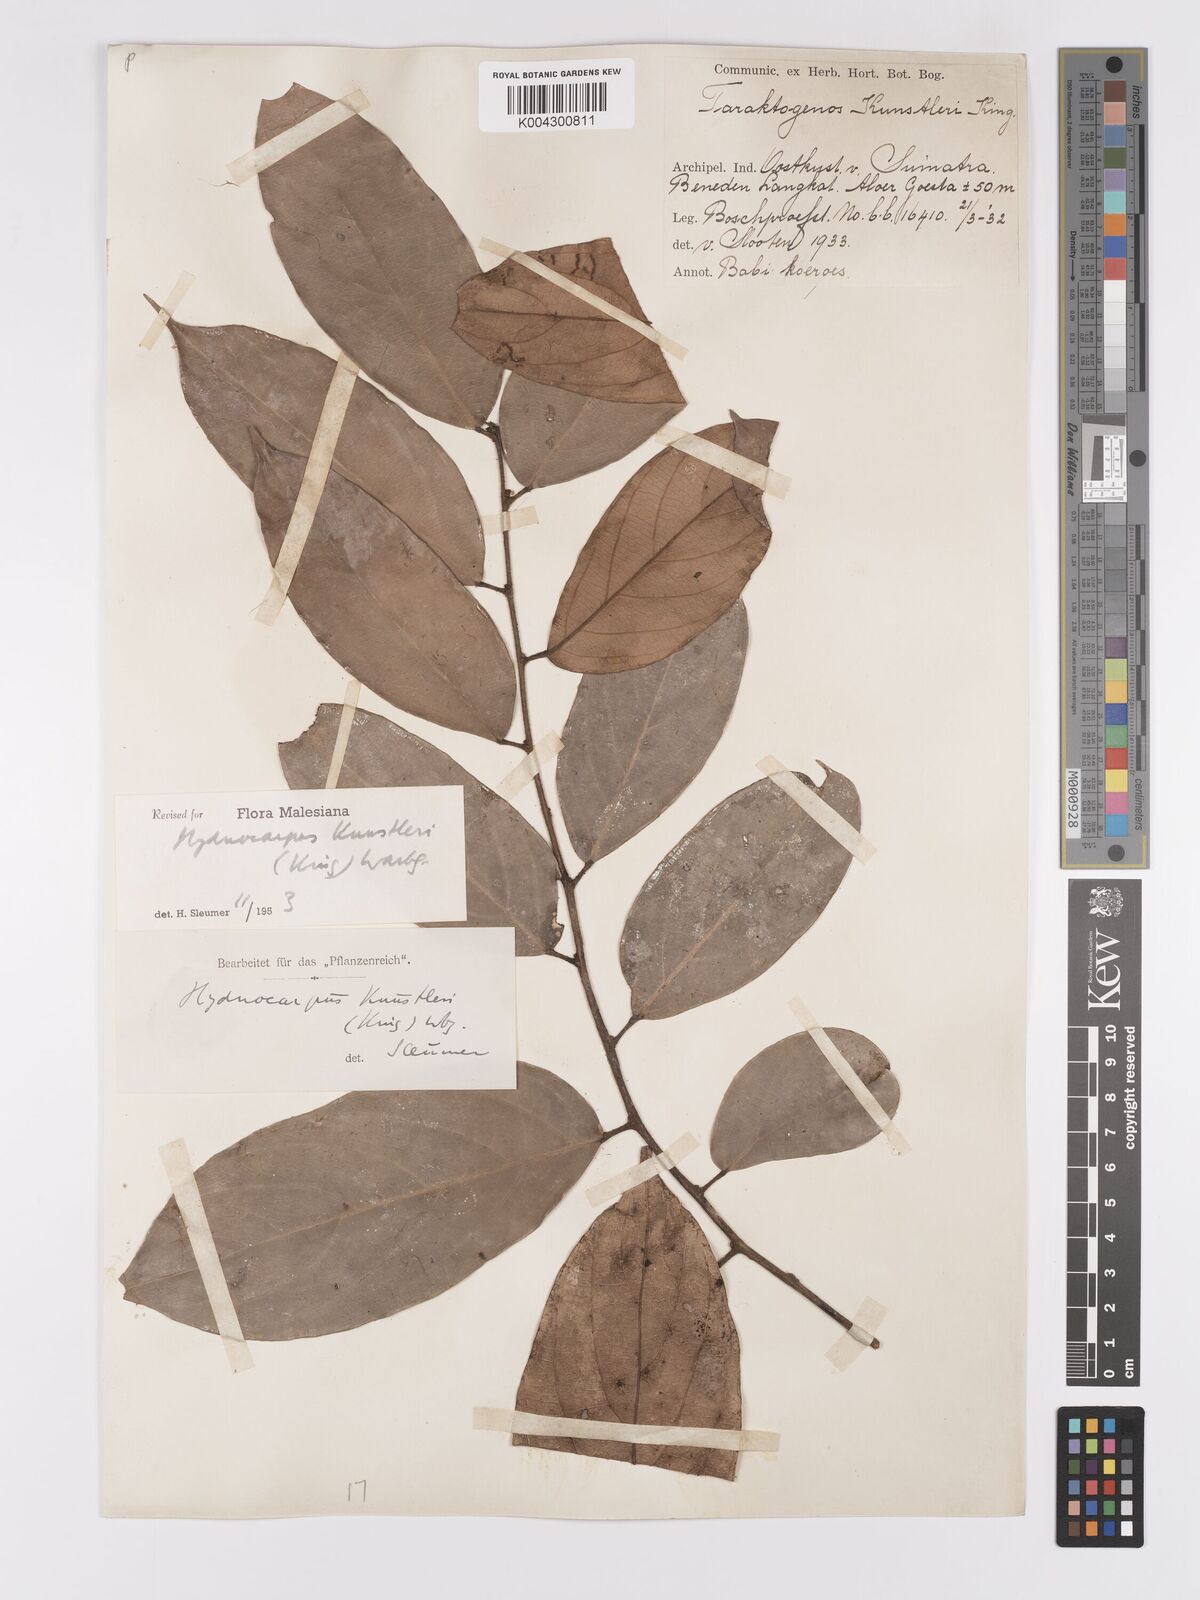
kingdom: Plantae
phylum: Tracheophyta
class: Magnoliopsida
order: Malpighiales
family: Achariaceae
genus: Hydnocarpus
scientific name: Hydnocarpus kunstleri
